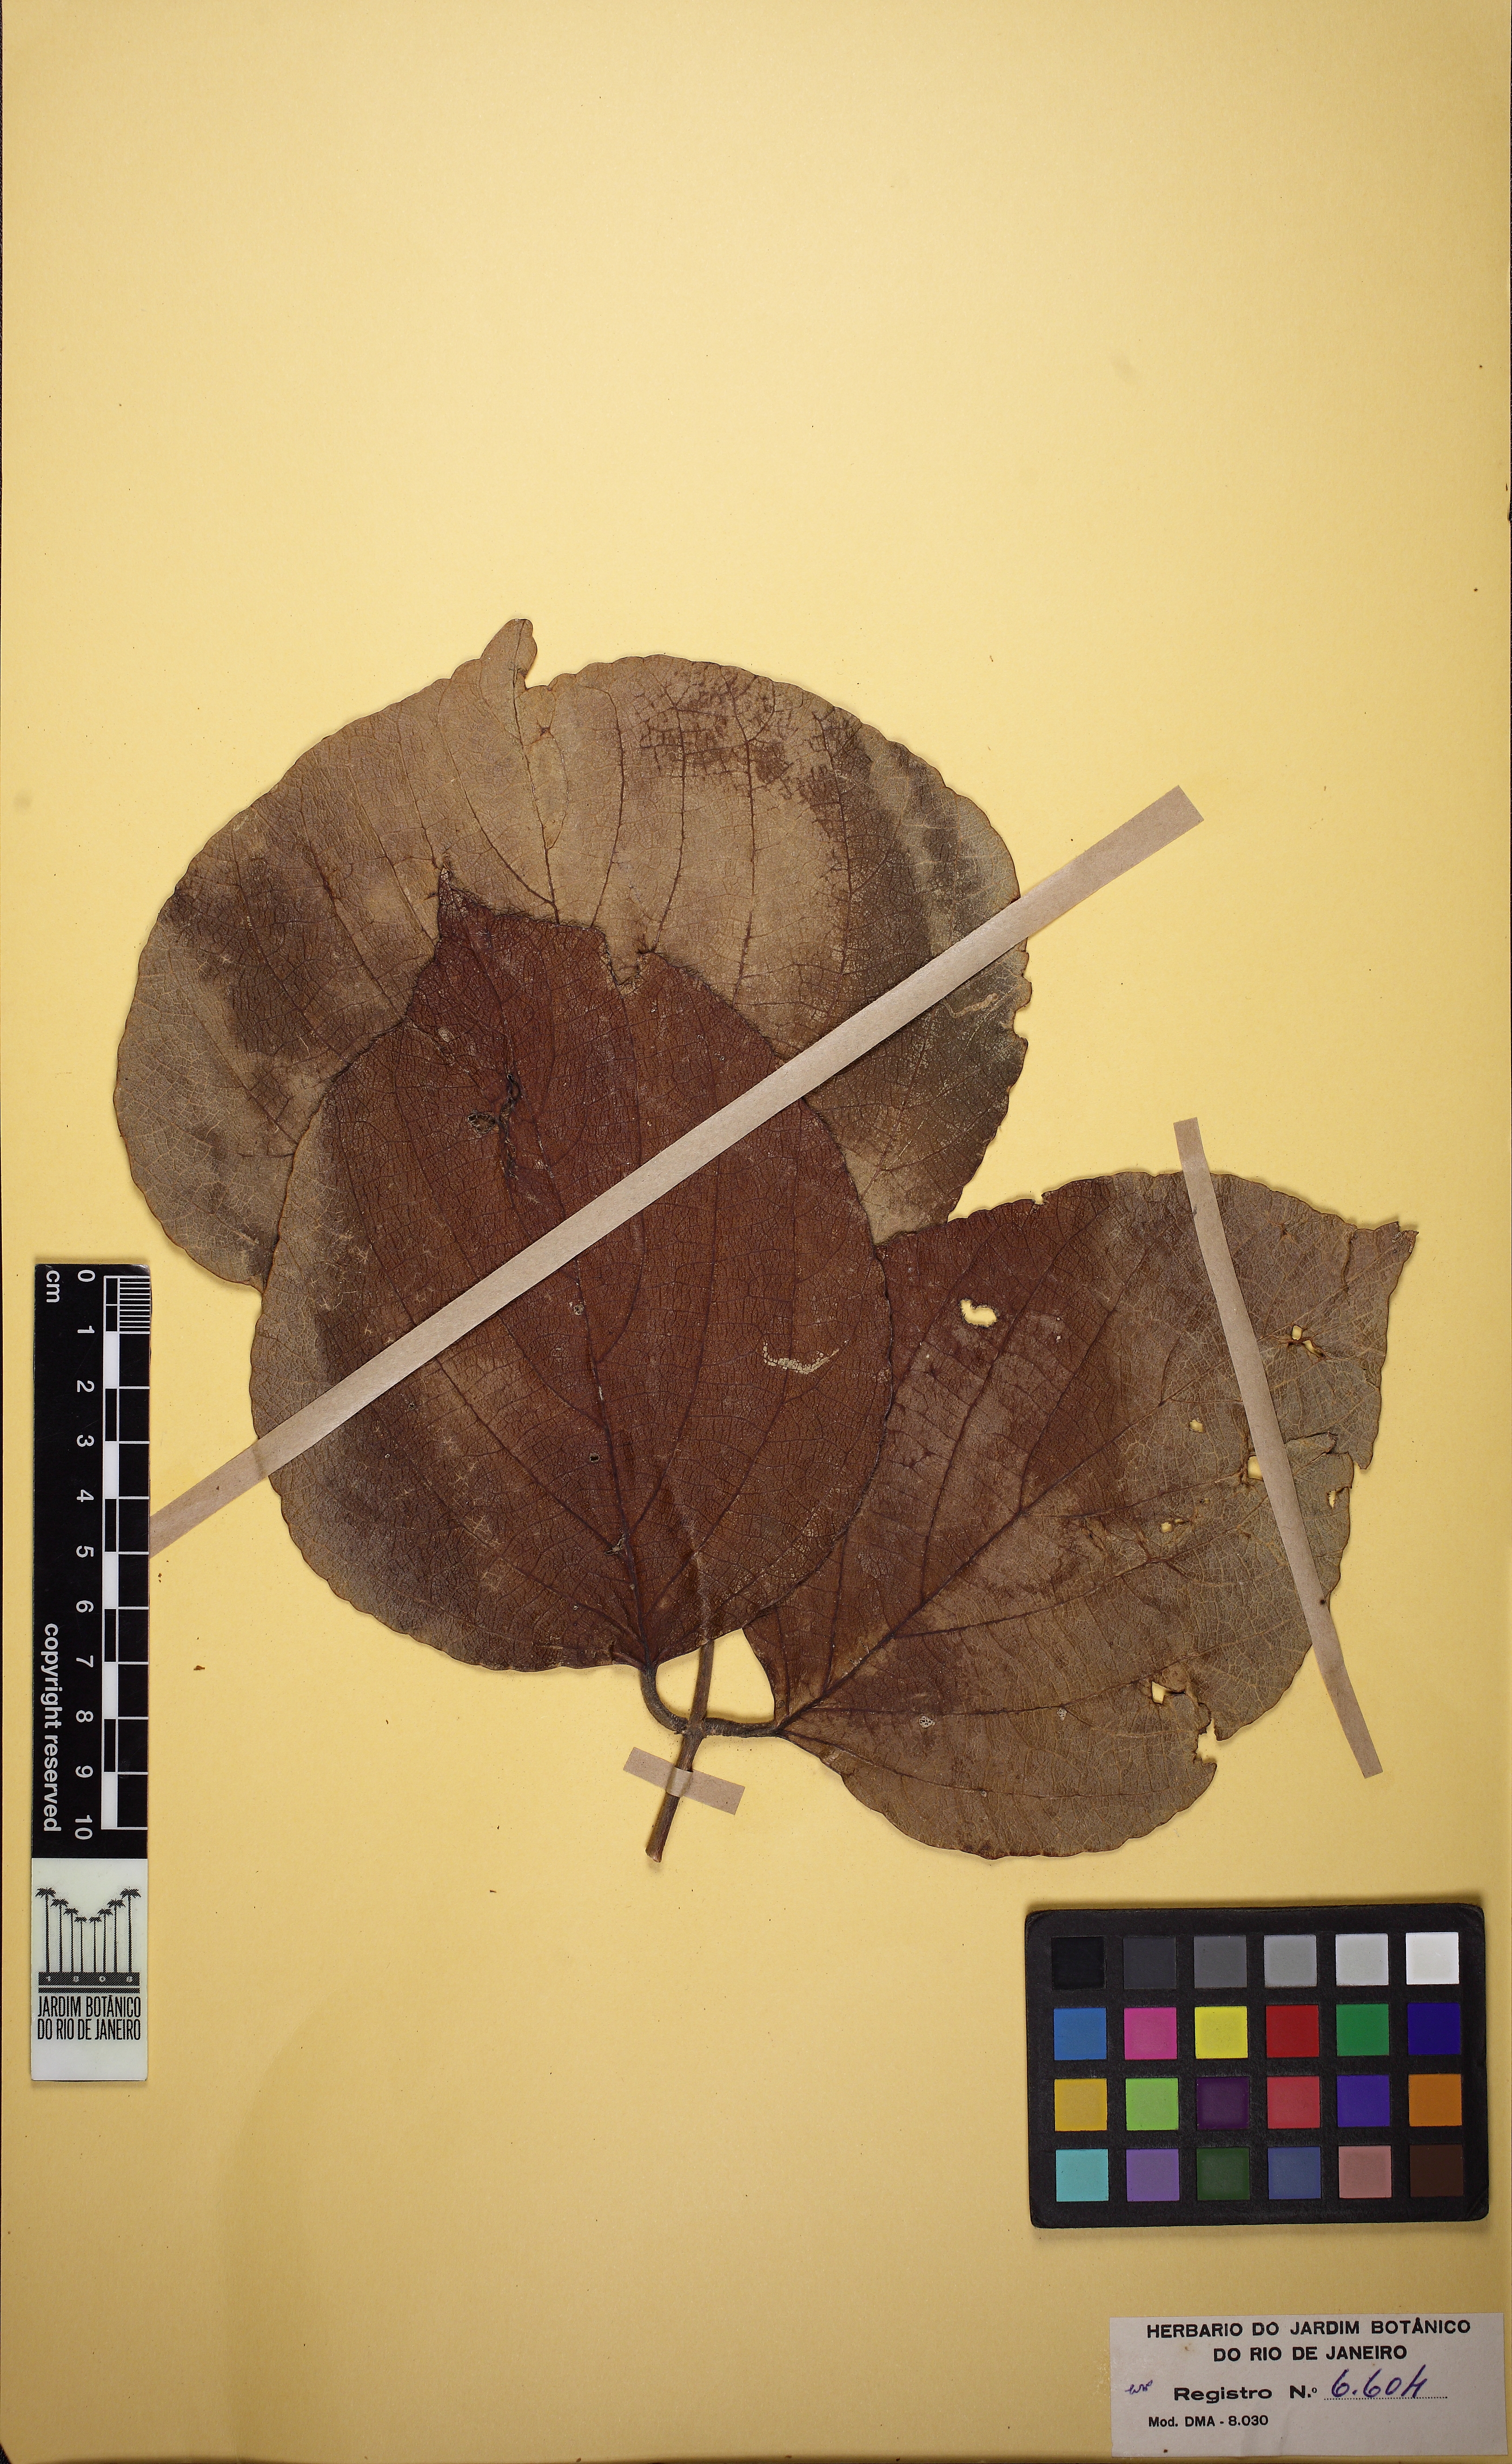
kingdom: Plantae
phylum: Tracheophyta
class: Magnoliopsida
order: Fabales
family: Fabaceae
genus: Platycyamus
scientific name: Platycyamus regnellii
